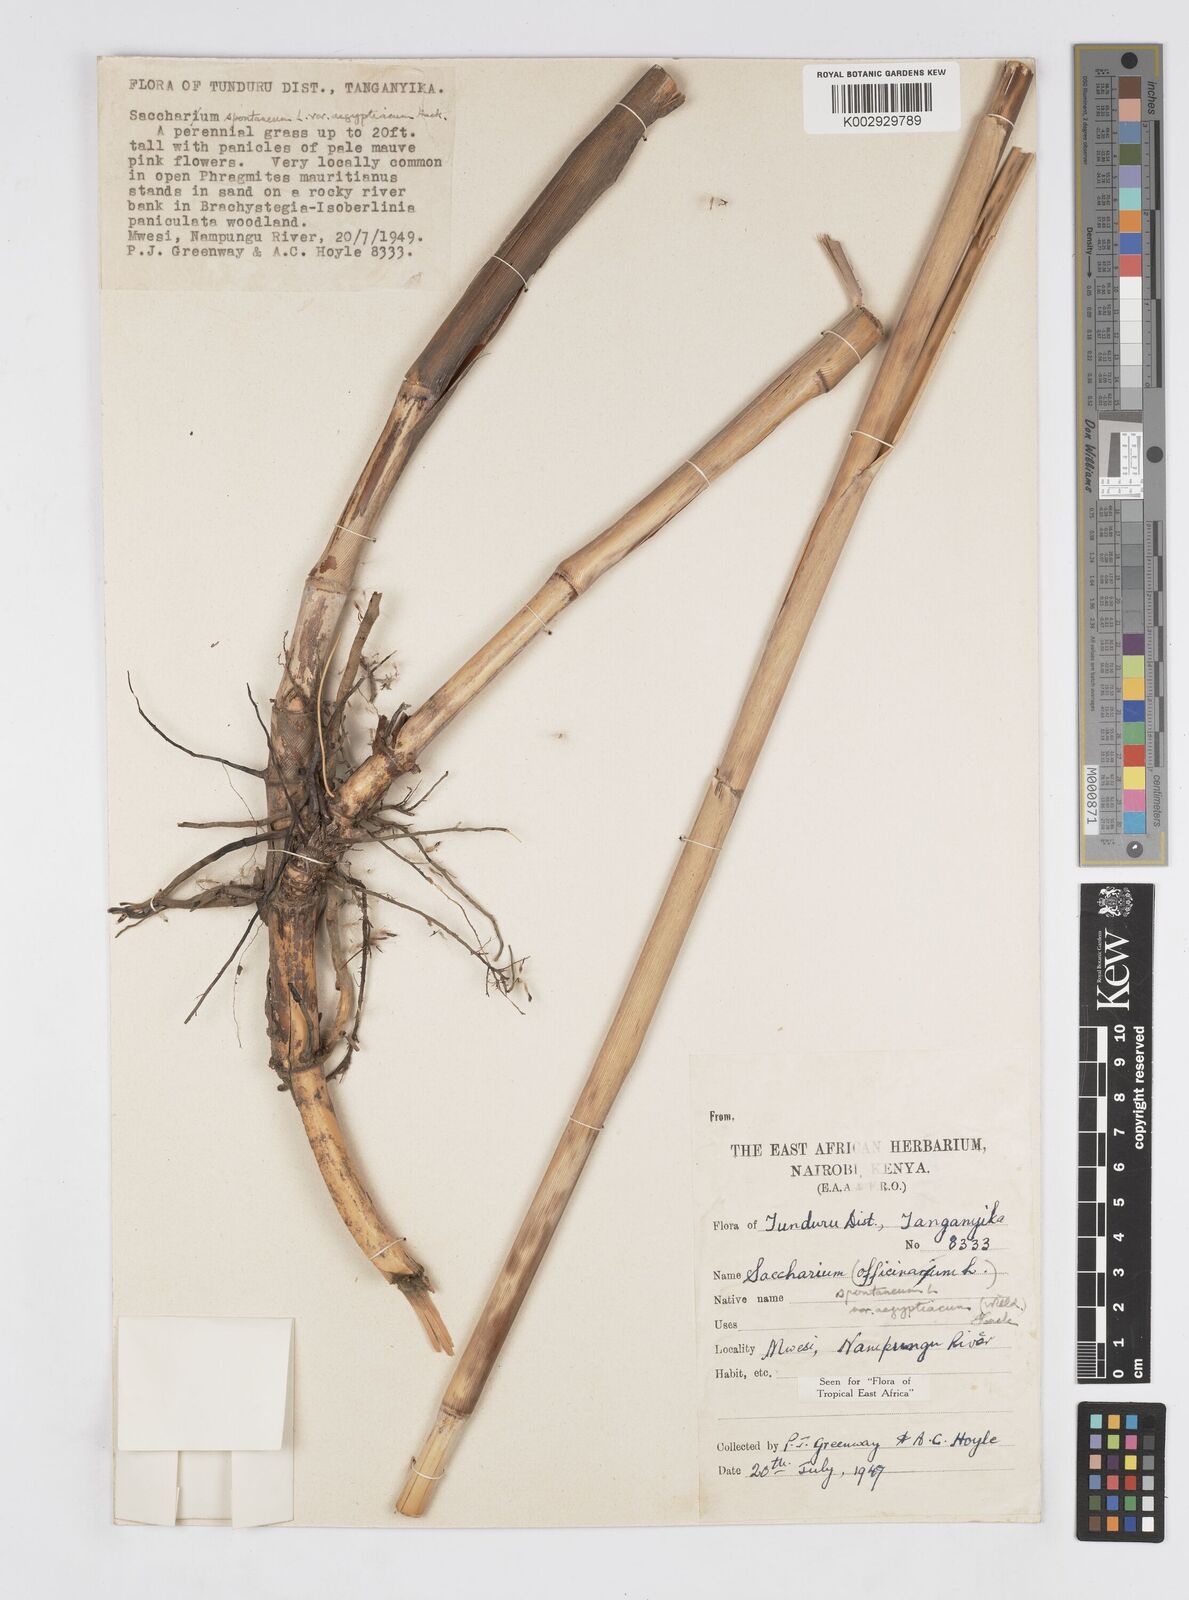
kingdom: Plantae
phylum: Tracheophyta
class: Liliopsida
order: Poales
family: Poaceae
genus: Saccharum
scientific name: Saccharum spontaneum
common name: Wild sugarcane
